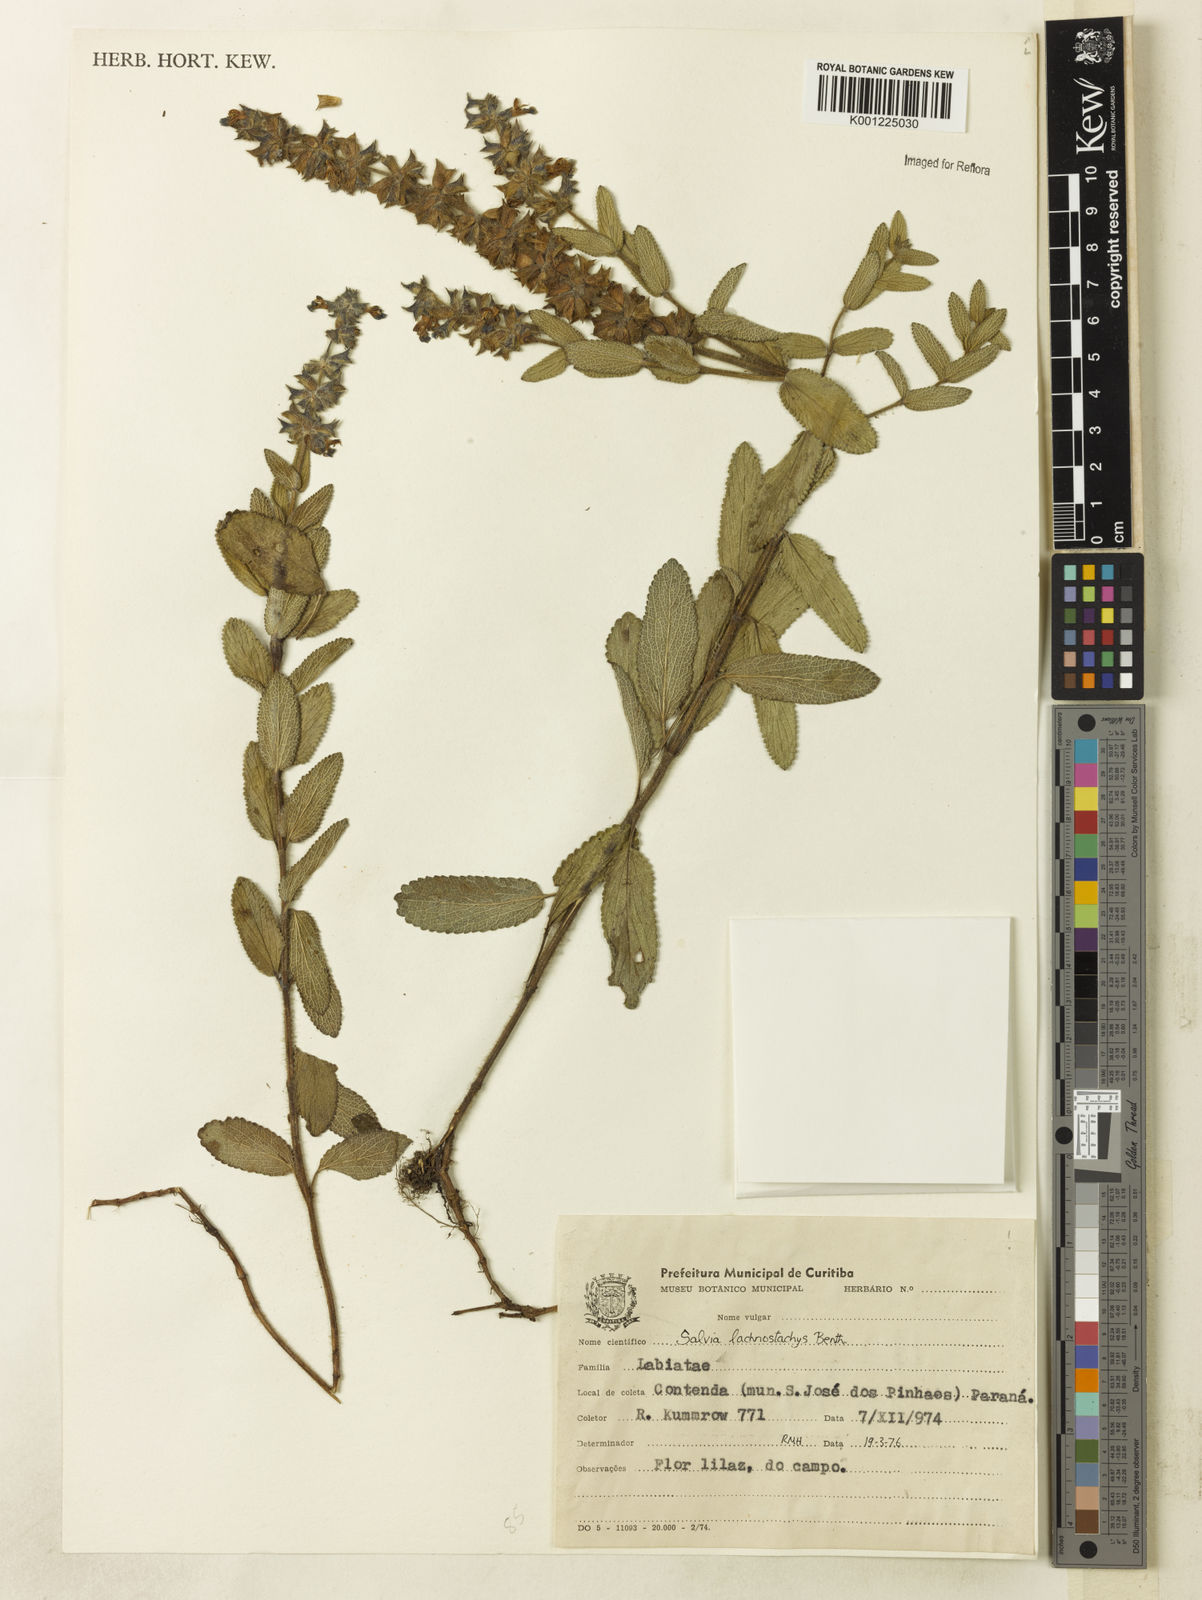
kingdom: Plantae
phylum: Tracheophyta
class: Magnoliopsida
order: Lamiales
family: Lamiaceae
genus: Salvia
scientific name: Salvia lachnostachys
